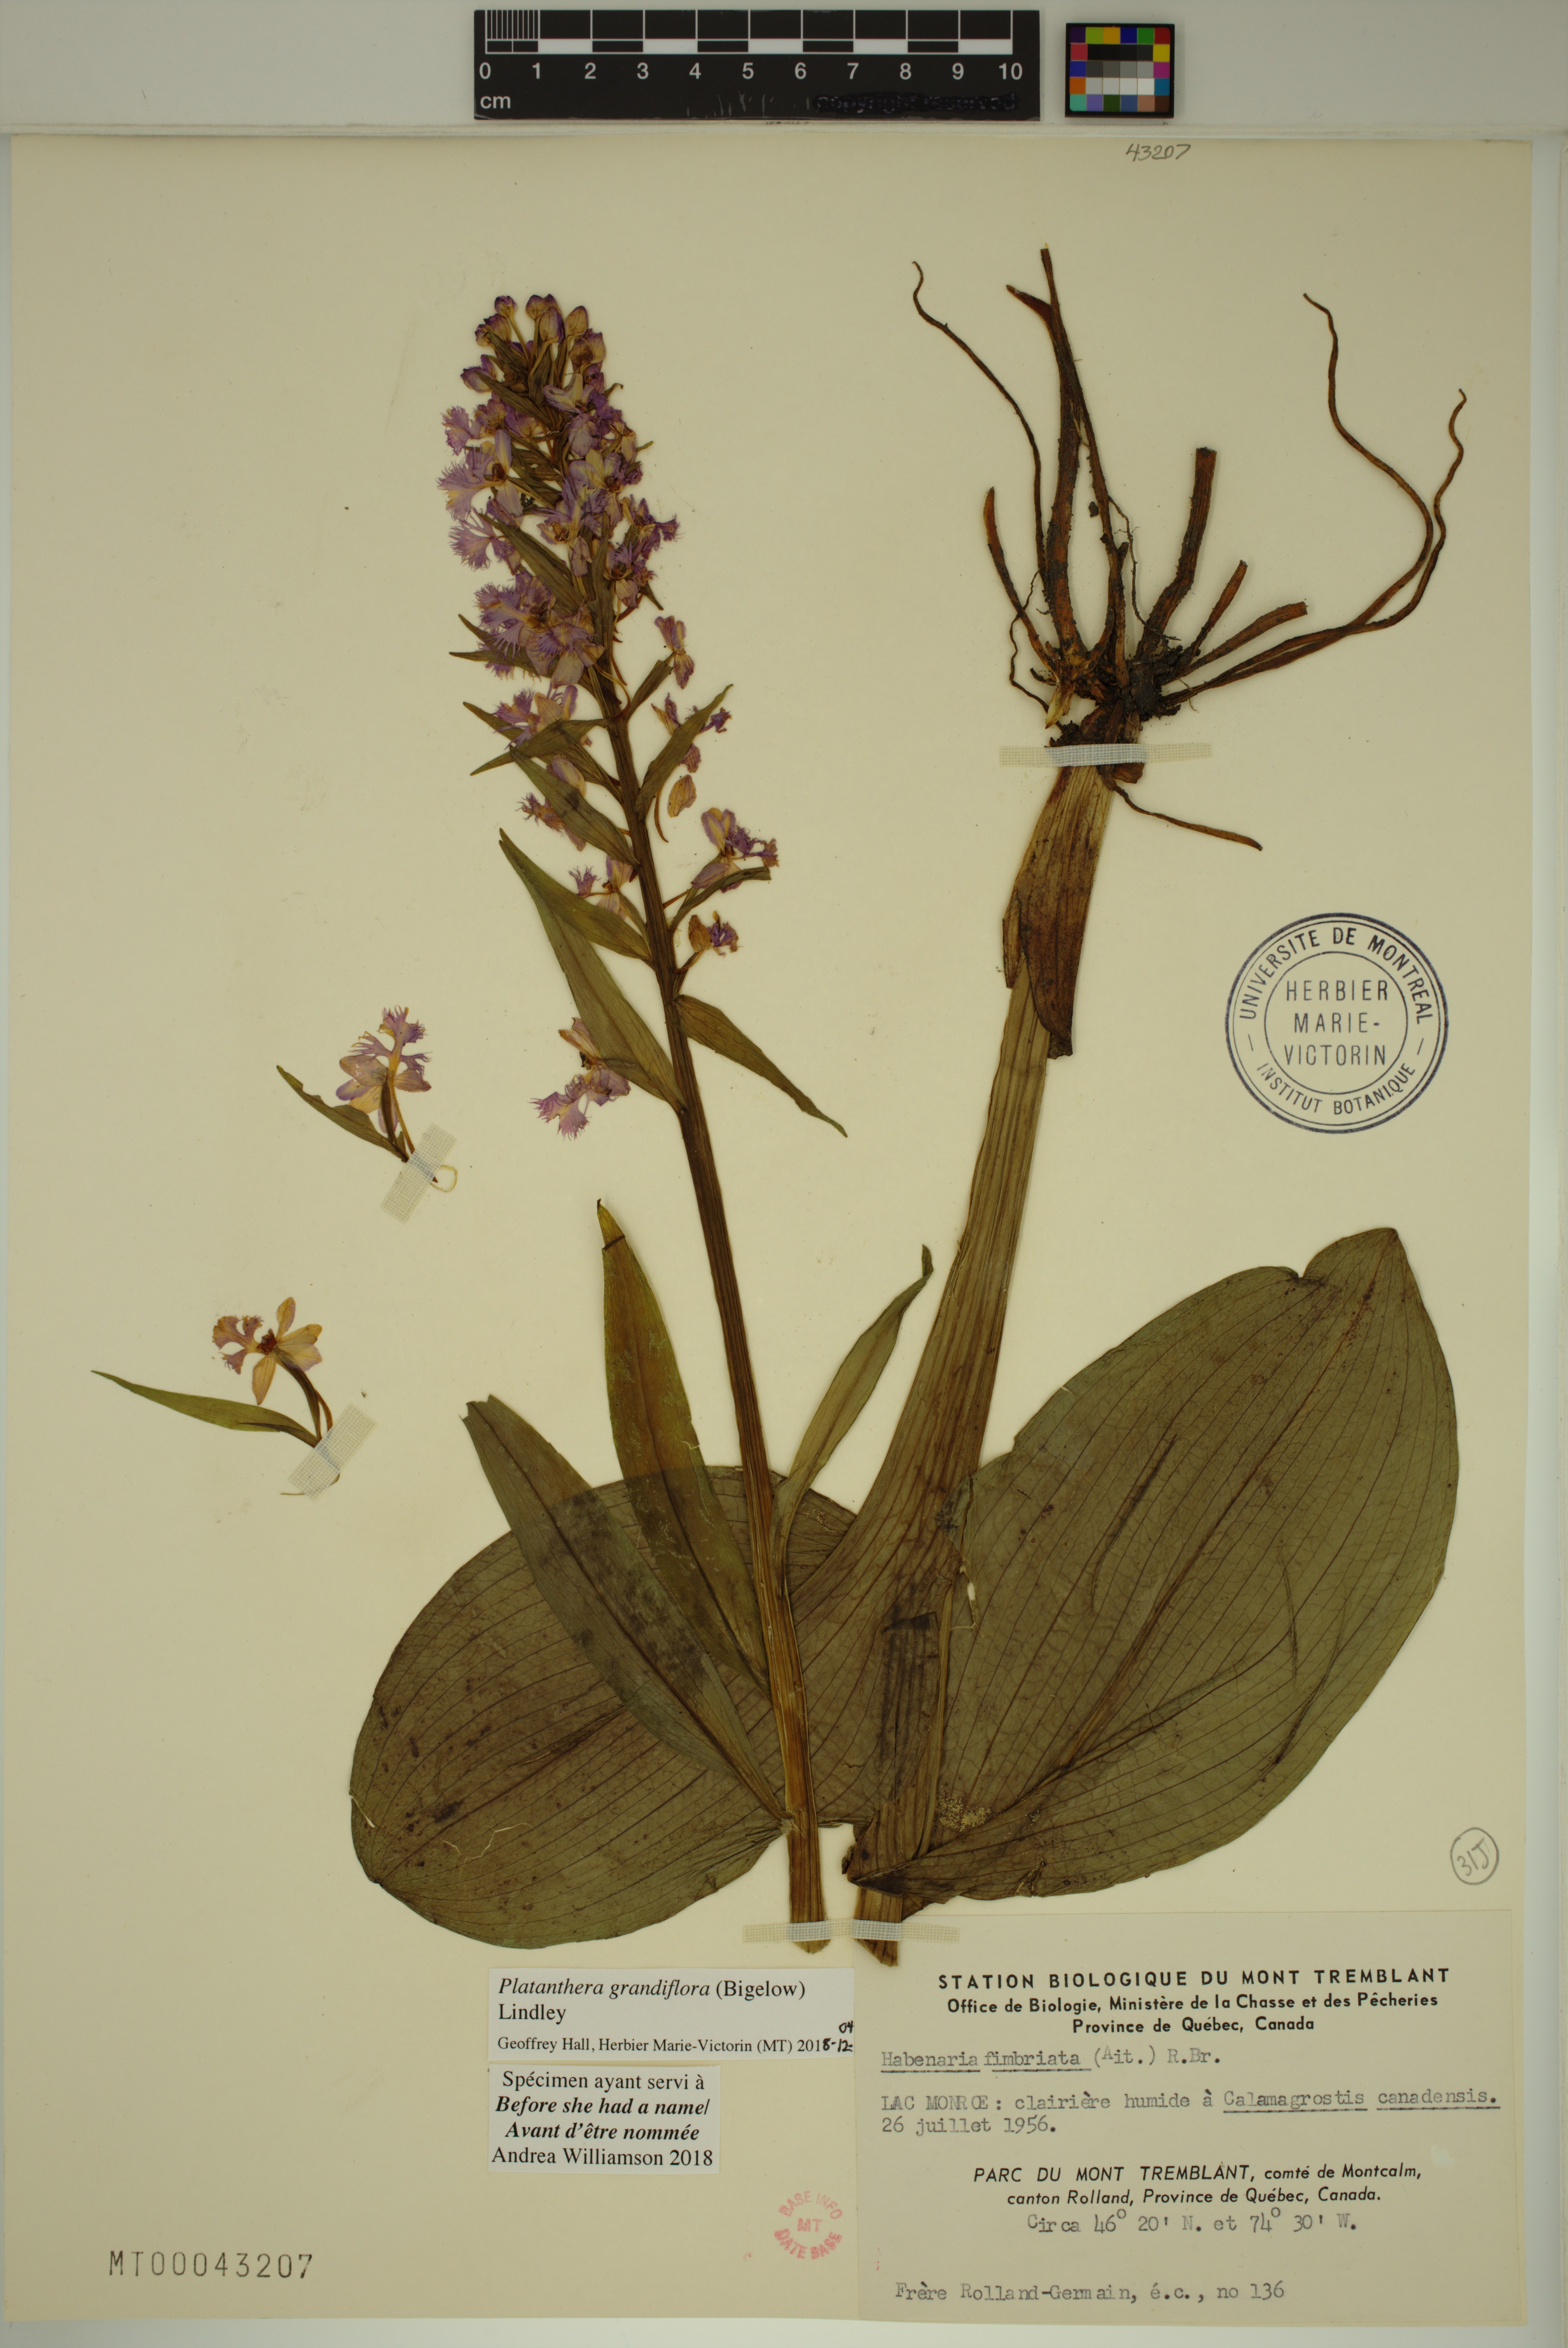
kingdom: Plantae
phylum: Tracheophyta
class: Liliopsida
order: Asparagales
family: Orchidaceae
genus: Platanthera
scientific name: Platanthera grandiflora
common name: Greater purple fringed orchid
